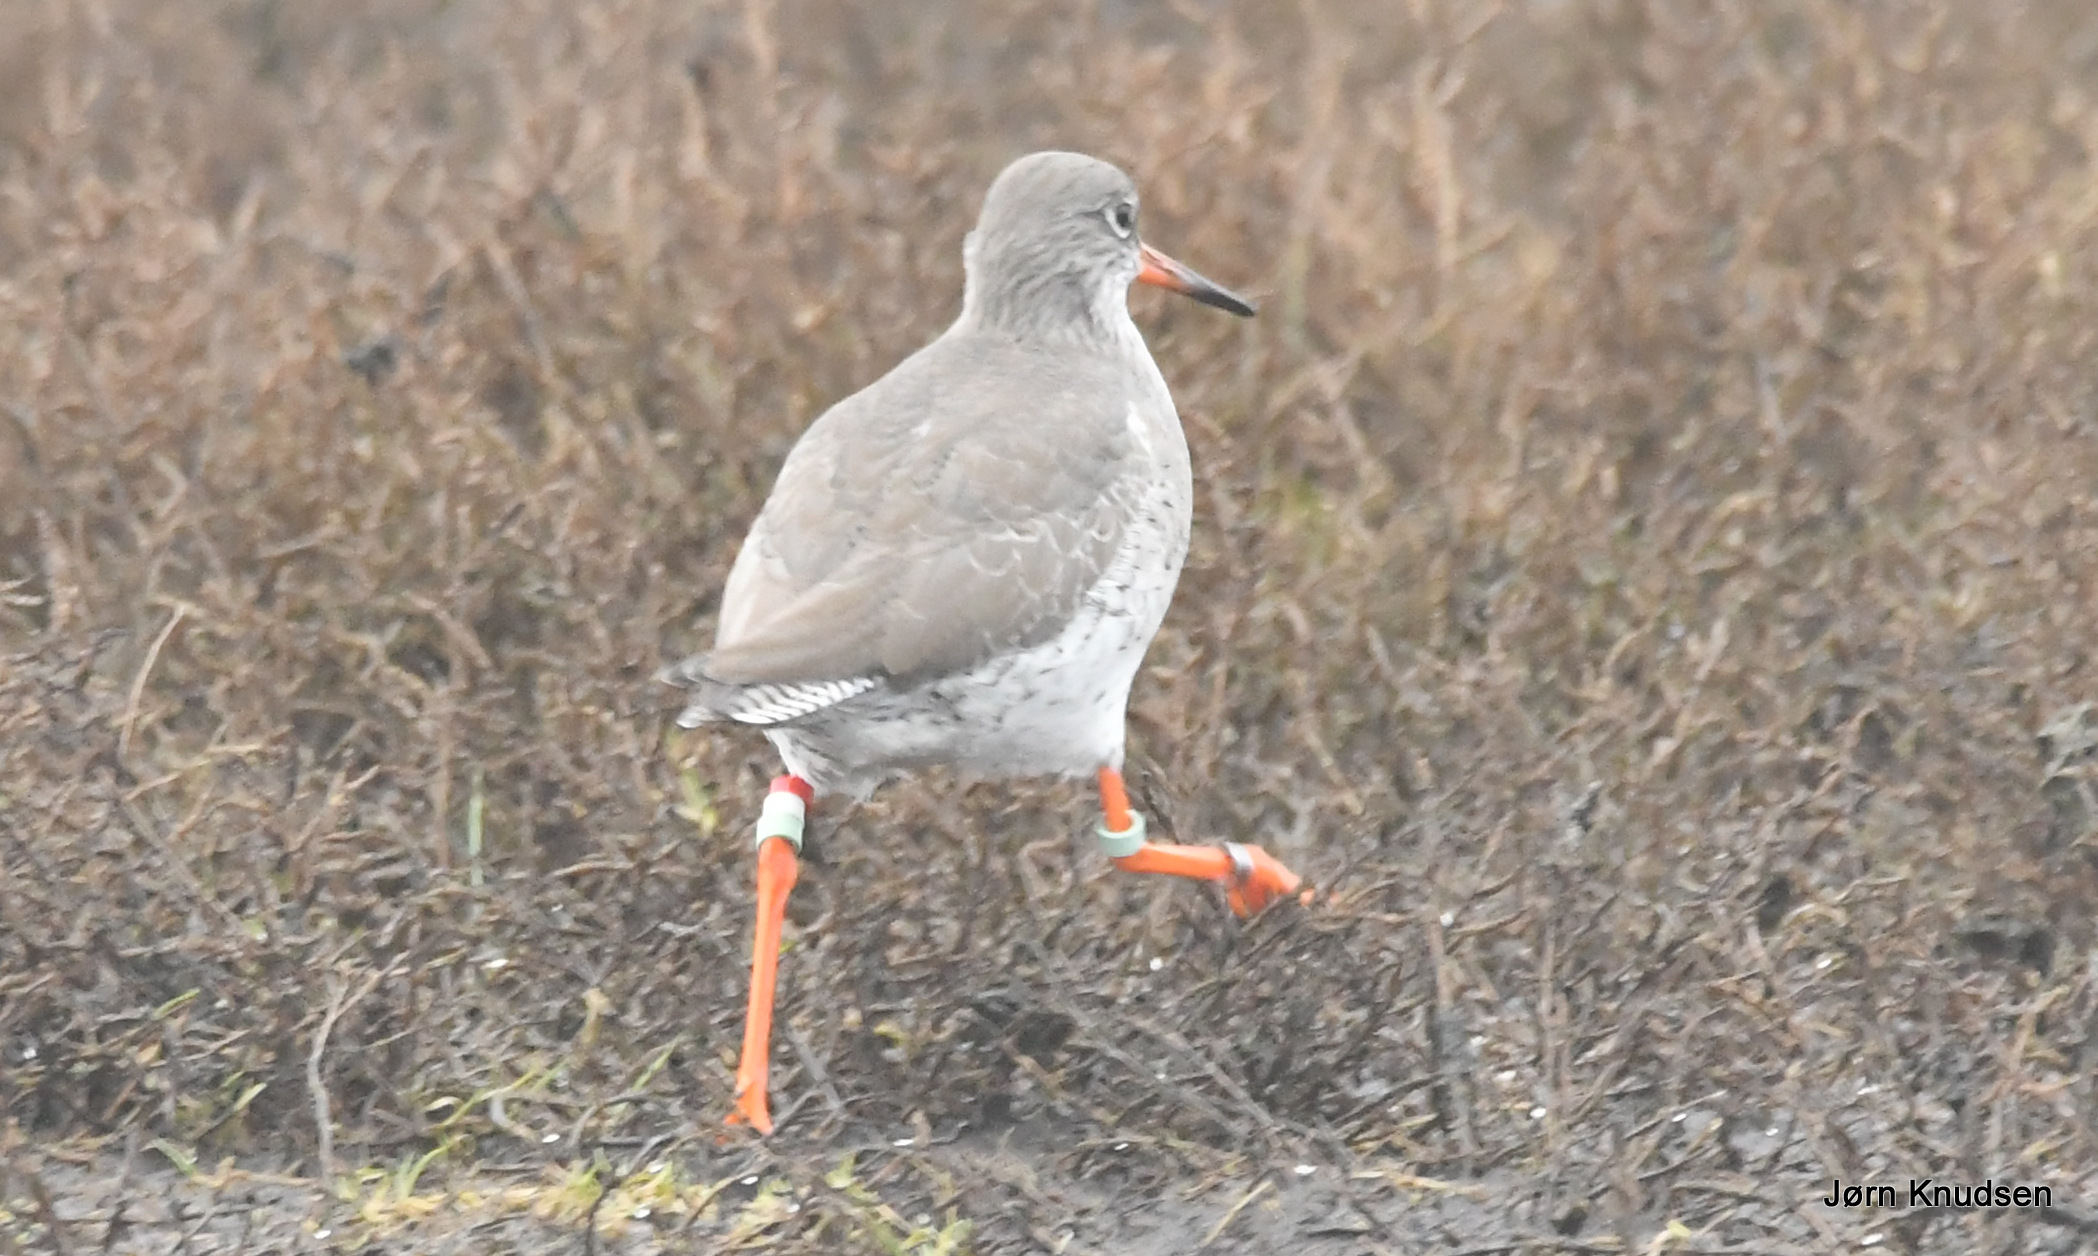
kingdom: Animalia
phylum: Chordata
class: Aves
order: Charadriiformes
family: Scolopacidae
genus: Tringa
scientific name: Tringa totanus
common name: Rødben
